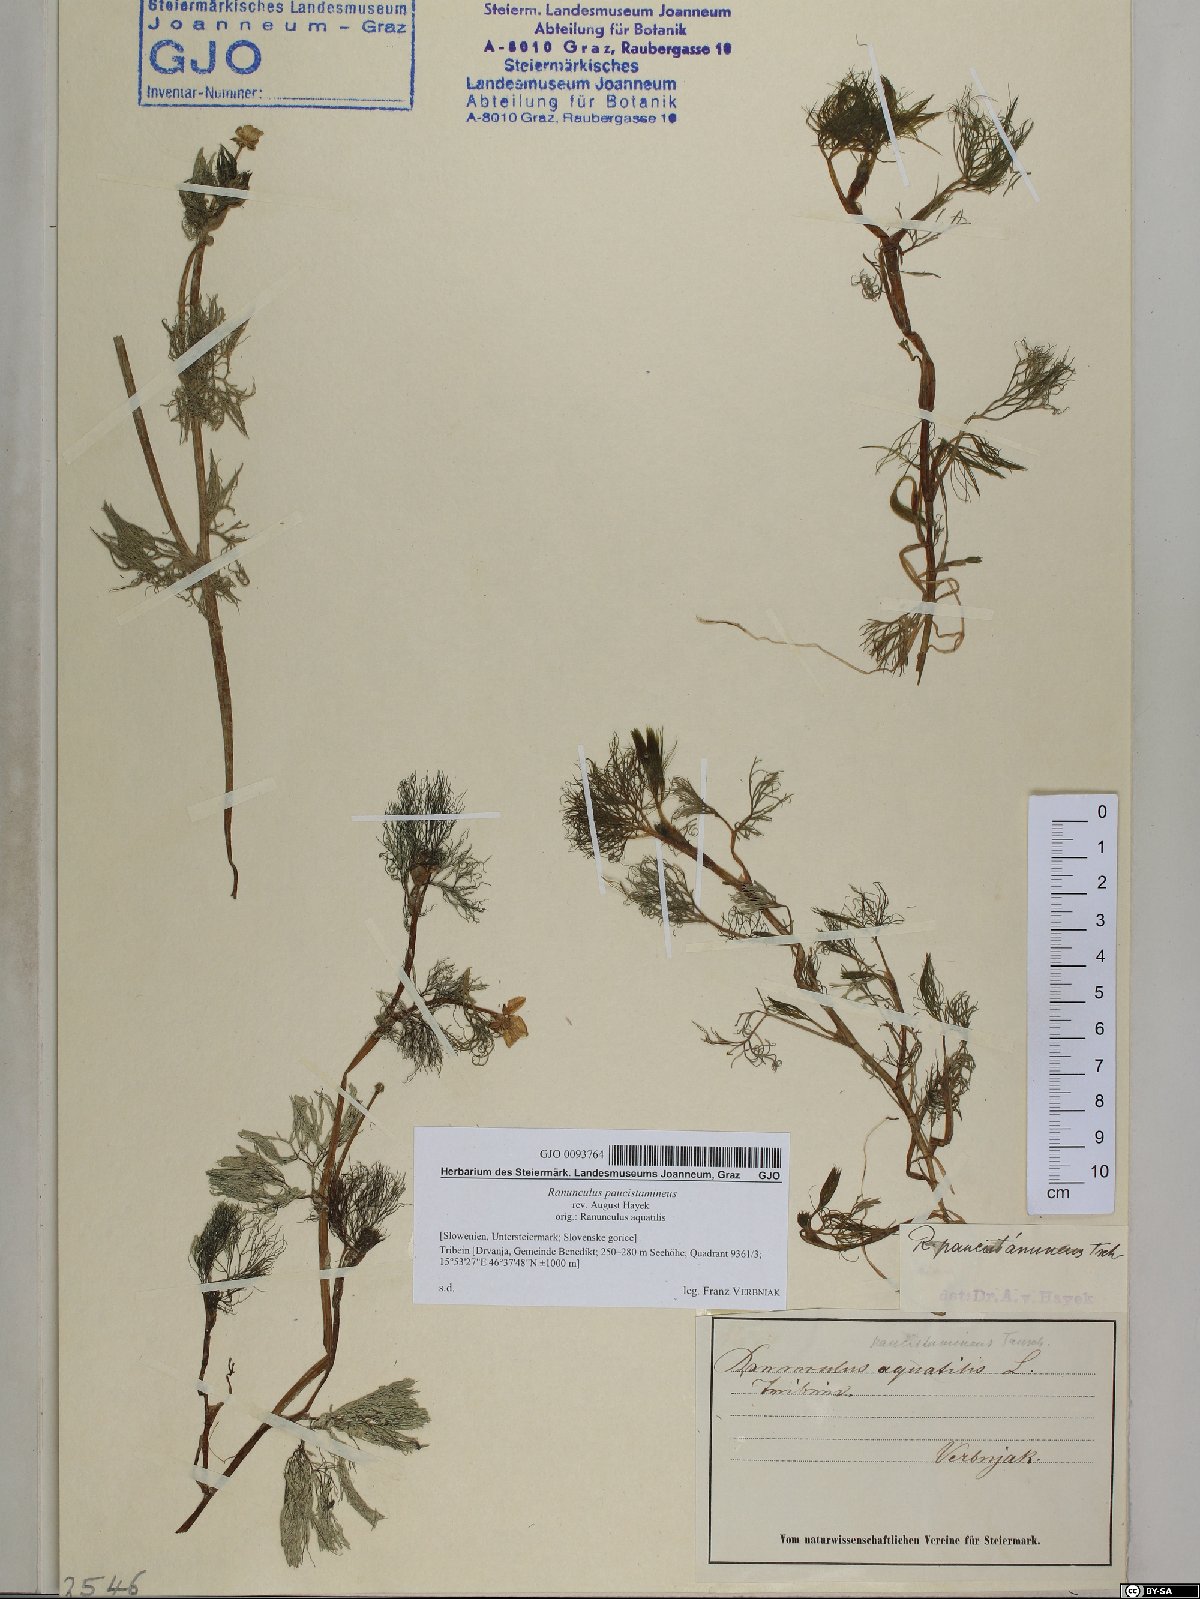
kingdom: Plantae
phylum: Tracheophyta
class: Magnoliopsida
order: Ranunculales
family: Ranunculaceae
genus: Ranunculus
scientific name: Ranunculus
